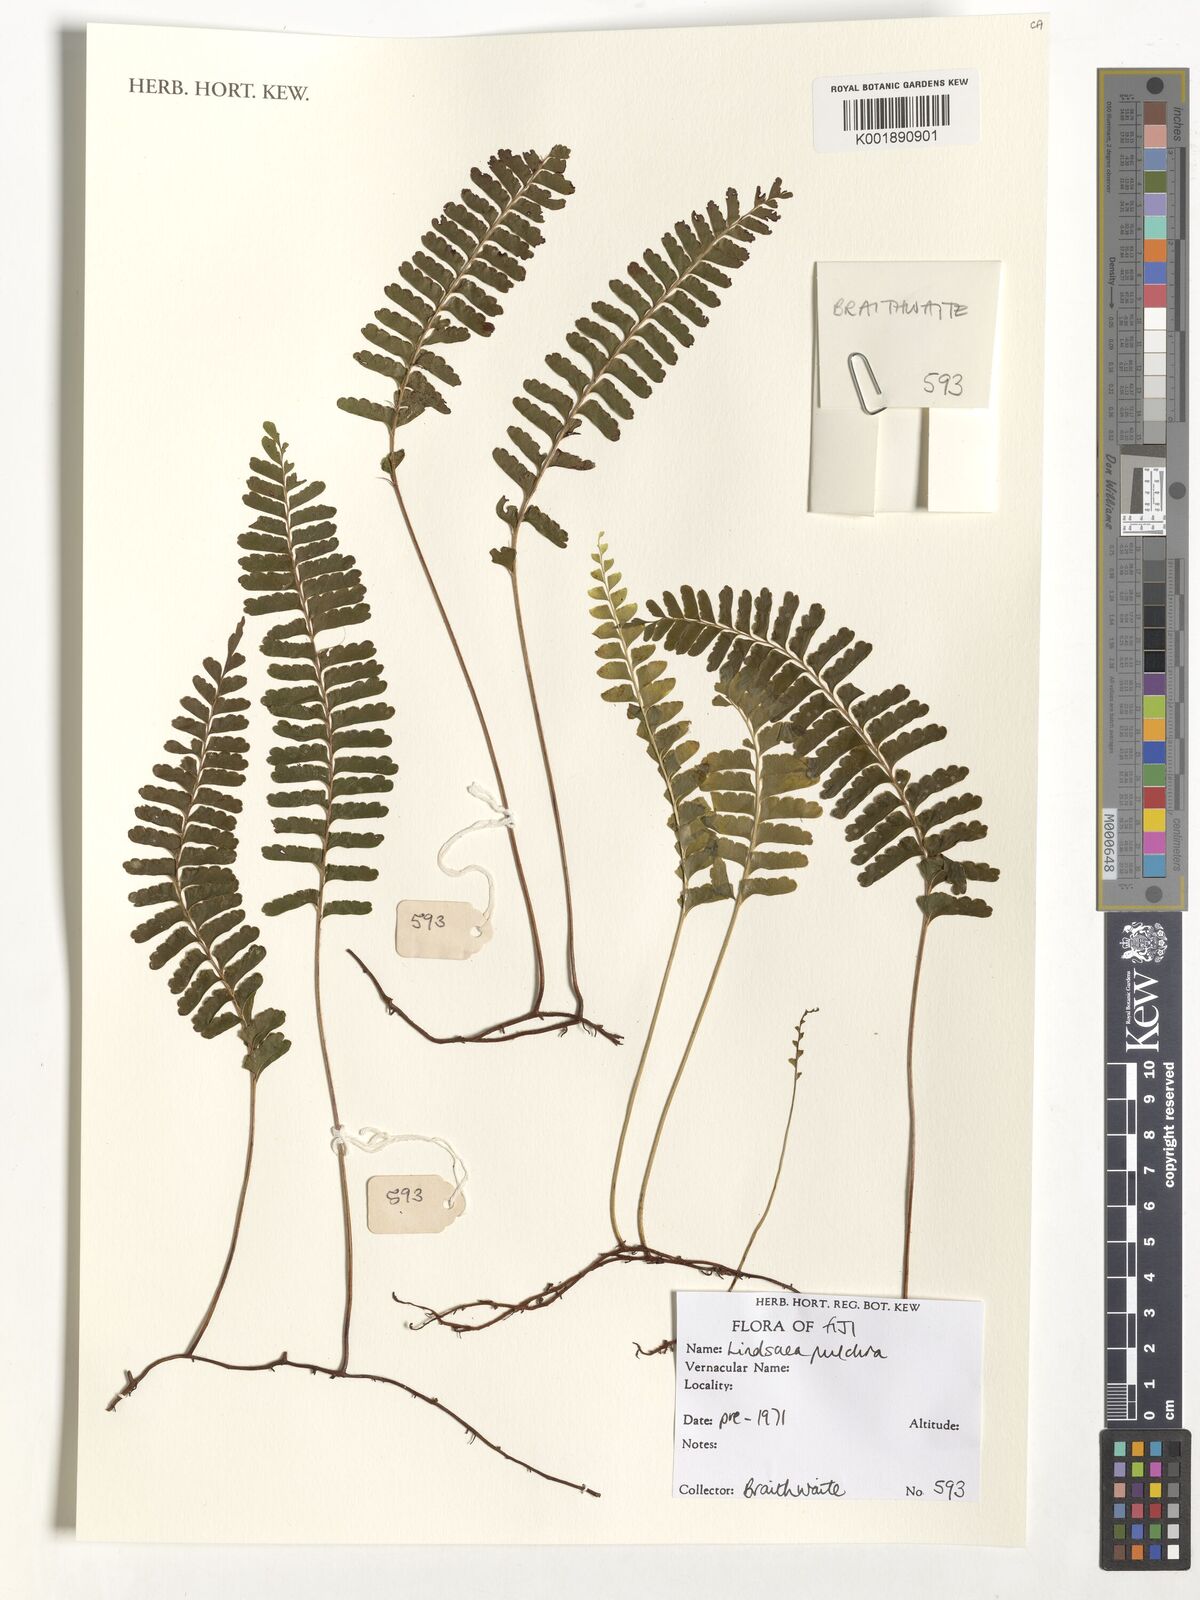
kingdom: Plantae
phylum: Tracheophyta
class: Polypodiopsida
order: Polypodiales
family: Lindsaeaceae
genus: Lindsaea
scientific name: Lindsaea pulchra
